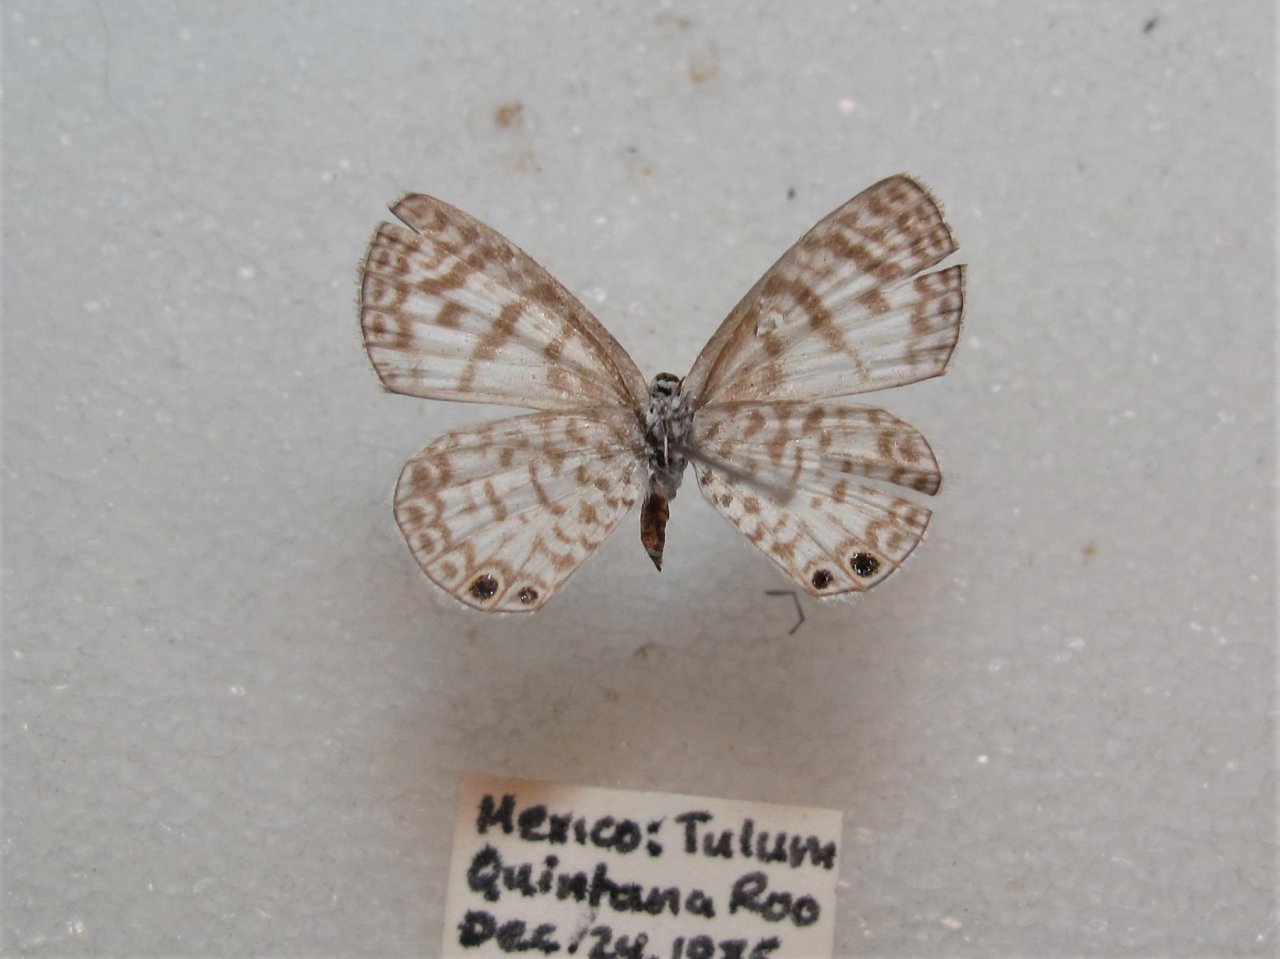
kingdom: Animalia
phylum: Arthropoda
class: Insecta
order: Lepidoptera
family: Lycaenidae
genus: Leptotes
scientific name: Leptotes cassius
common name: Cassius Blue
